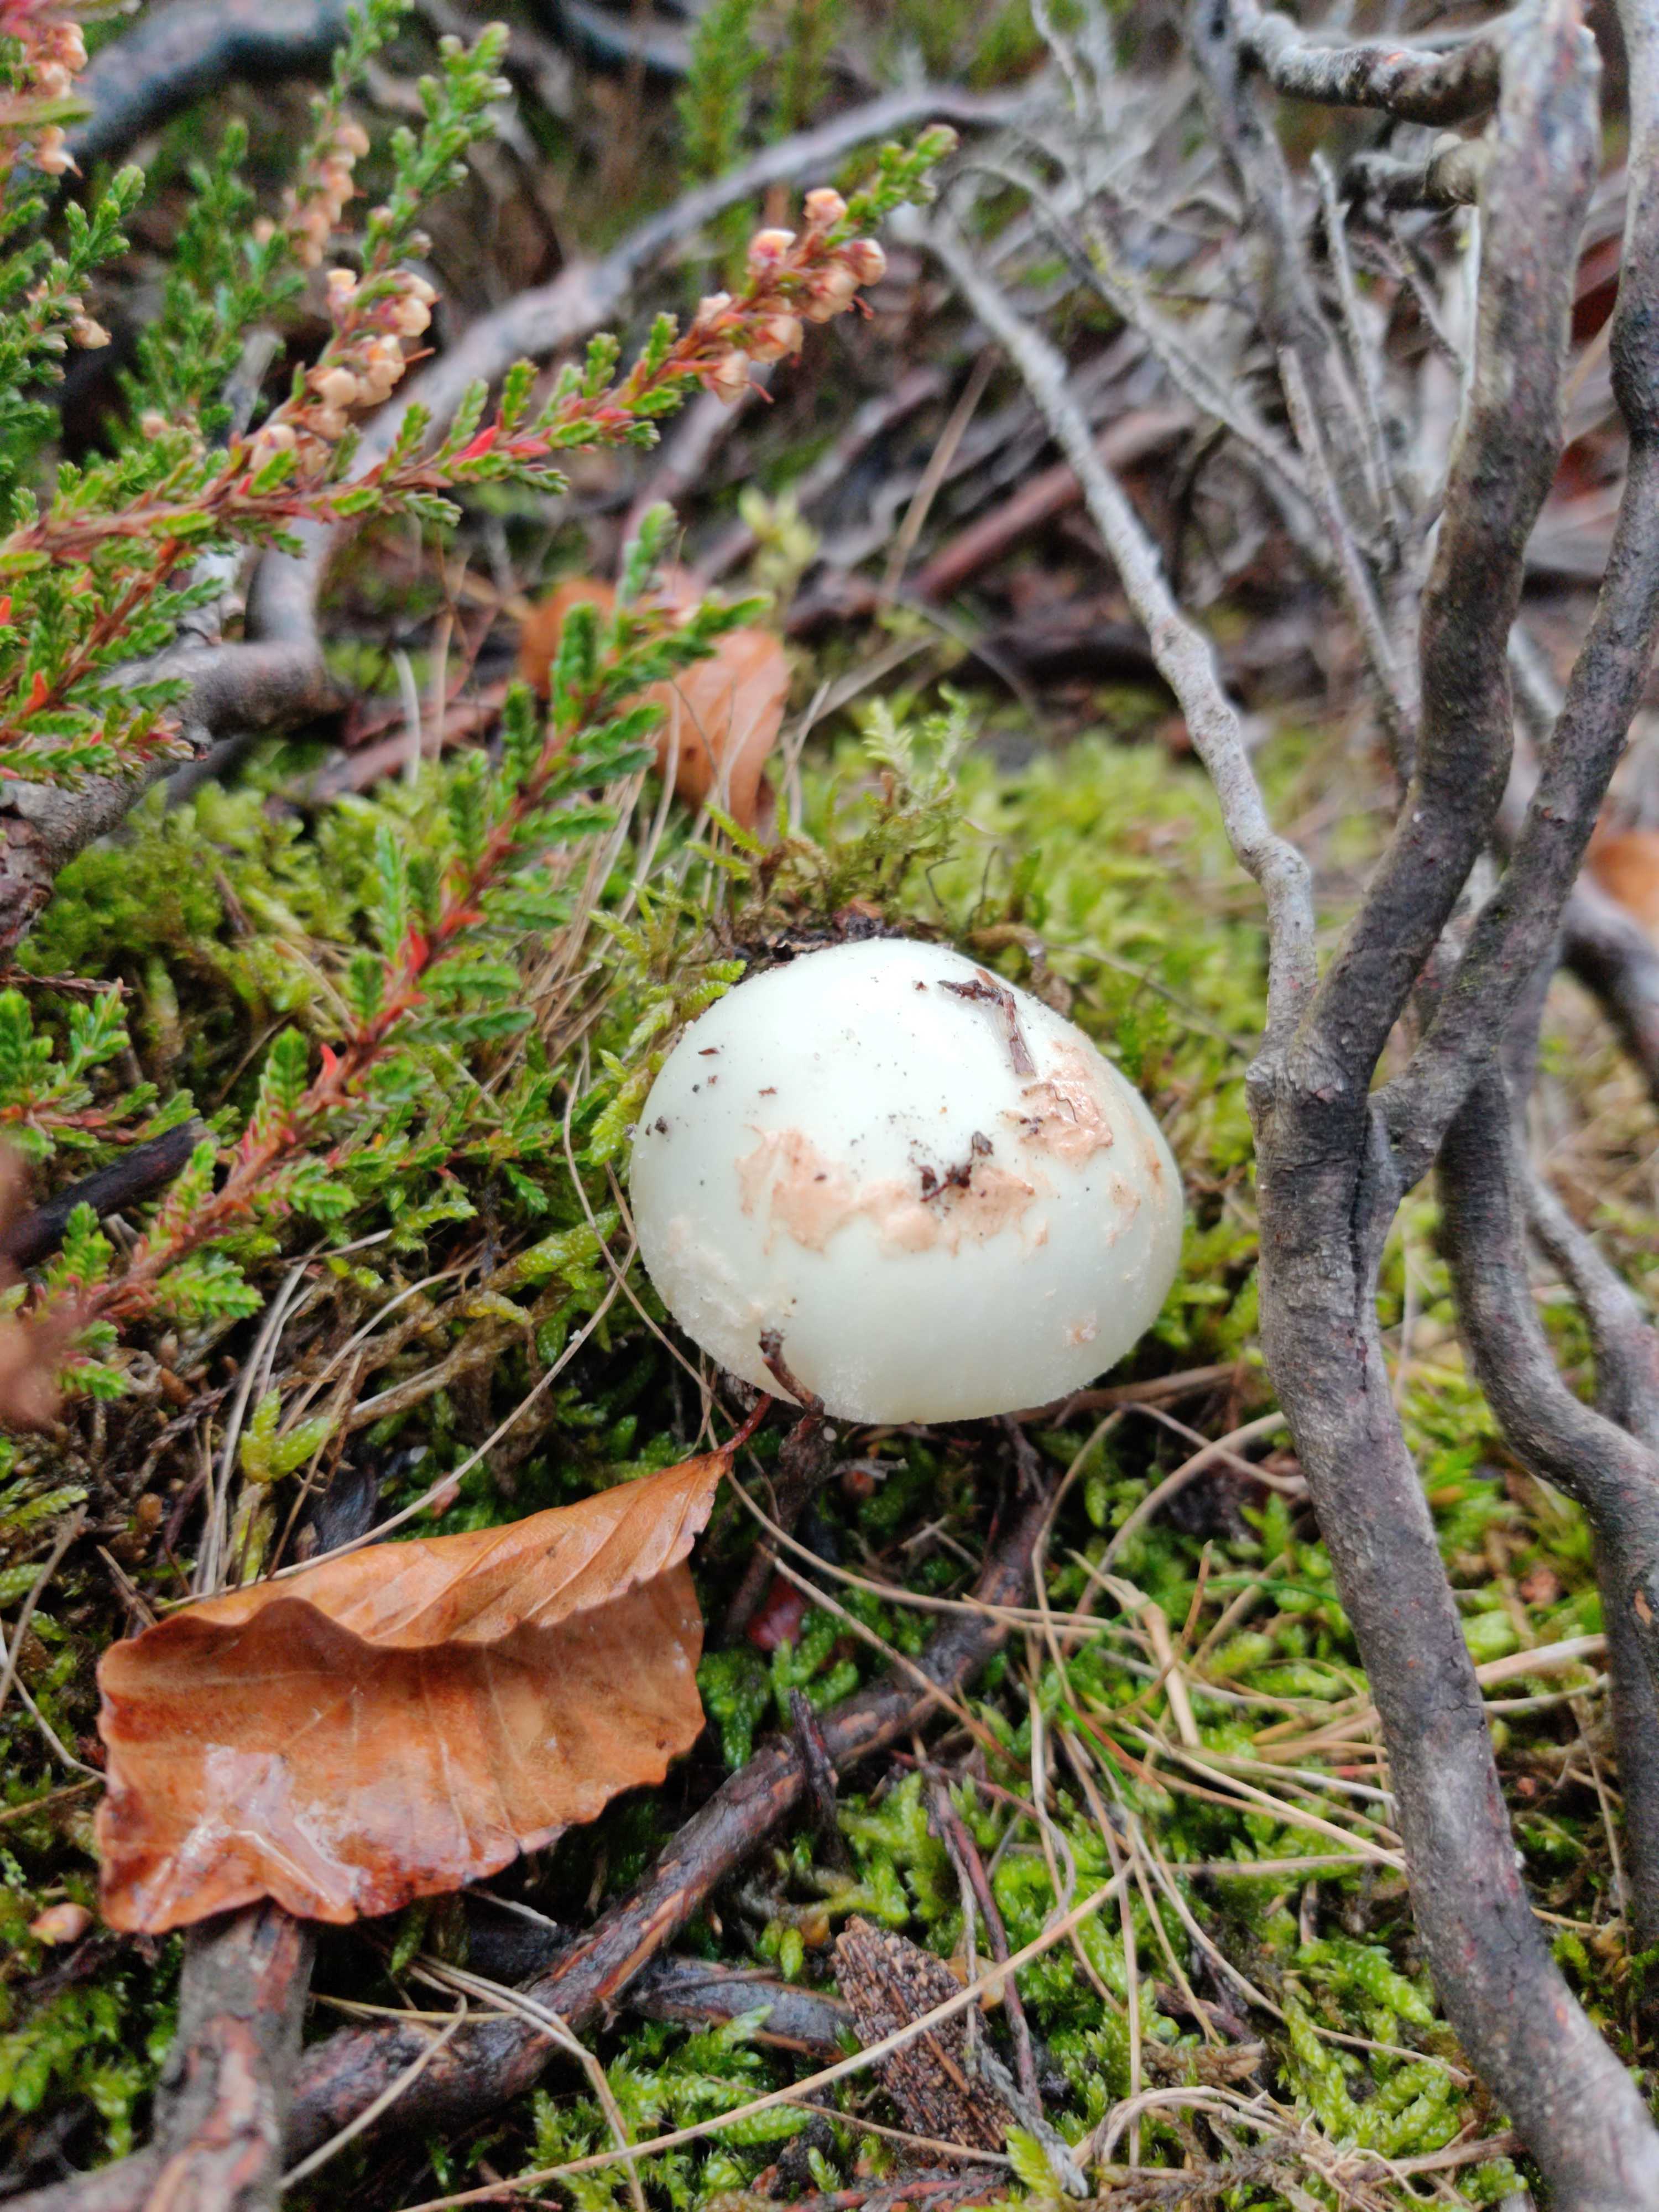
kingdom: Fungi
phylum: Basidiomycota
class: Agaricomycetes
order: Agaricales
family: Amanitaceae
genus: Amanita
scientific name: Amanita citrina
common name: kugleknoldet fluesvamp
